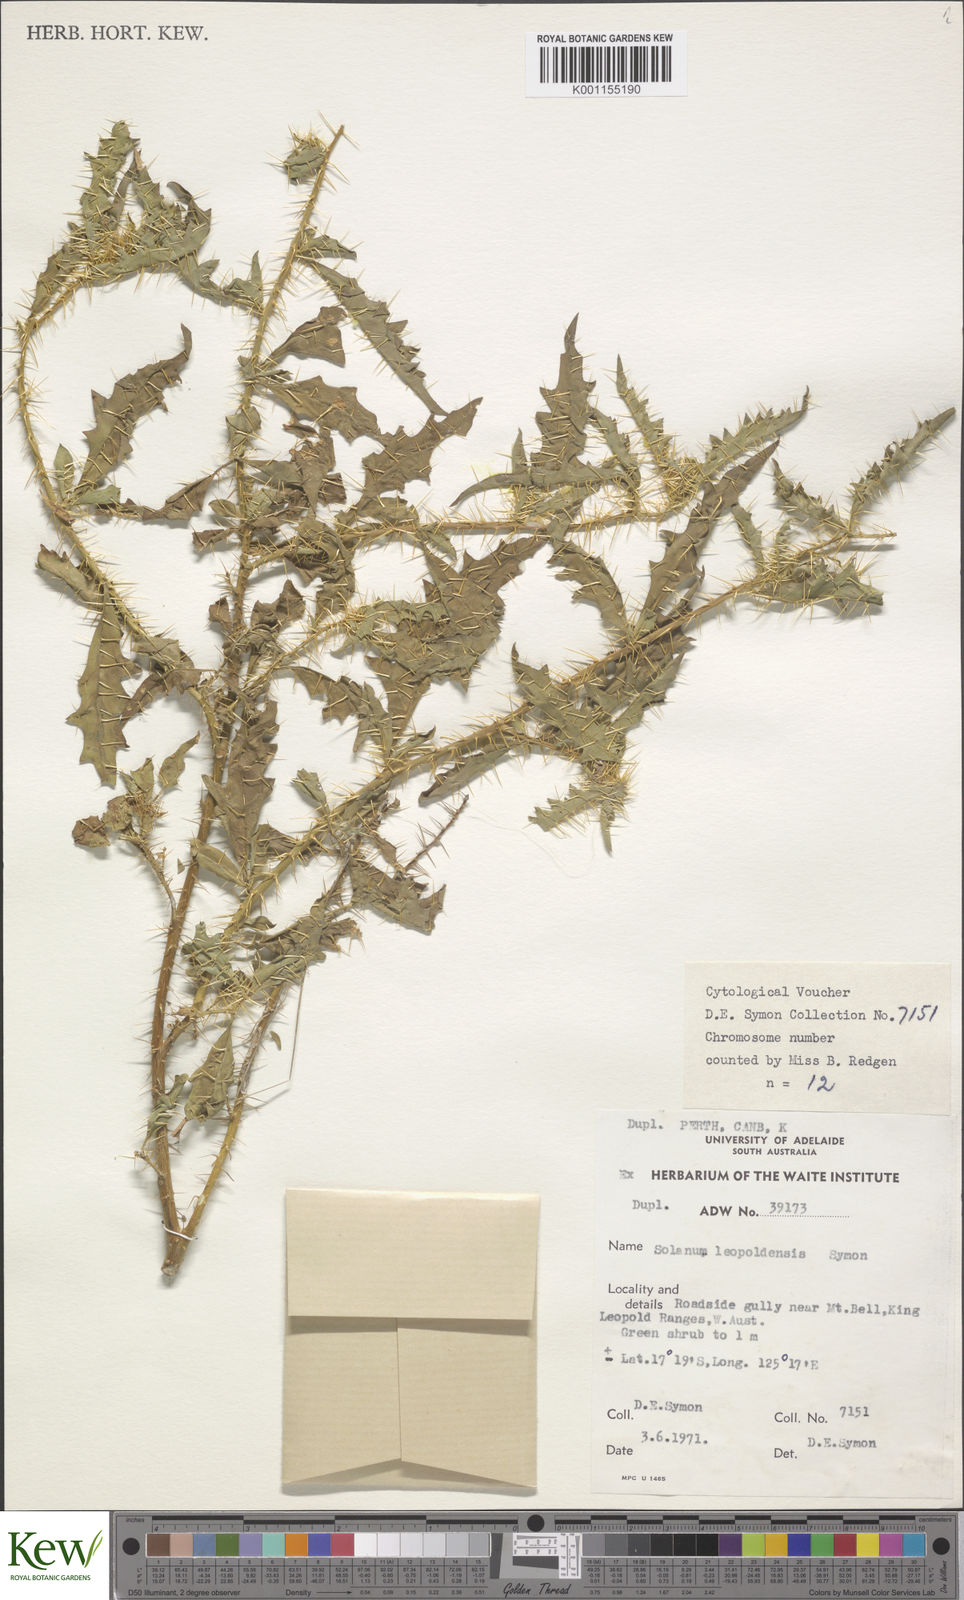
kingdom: Plantae
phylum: Tracheophyta
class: Magnoliopsida
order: Solanales
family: Solanaceae
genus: Solanum
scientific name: Solanum
